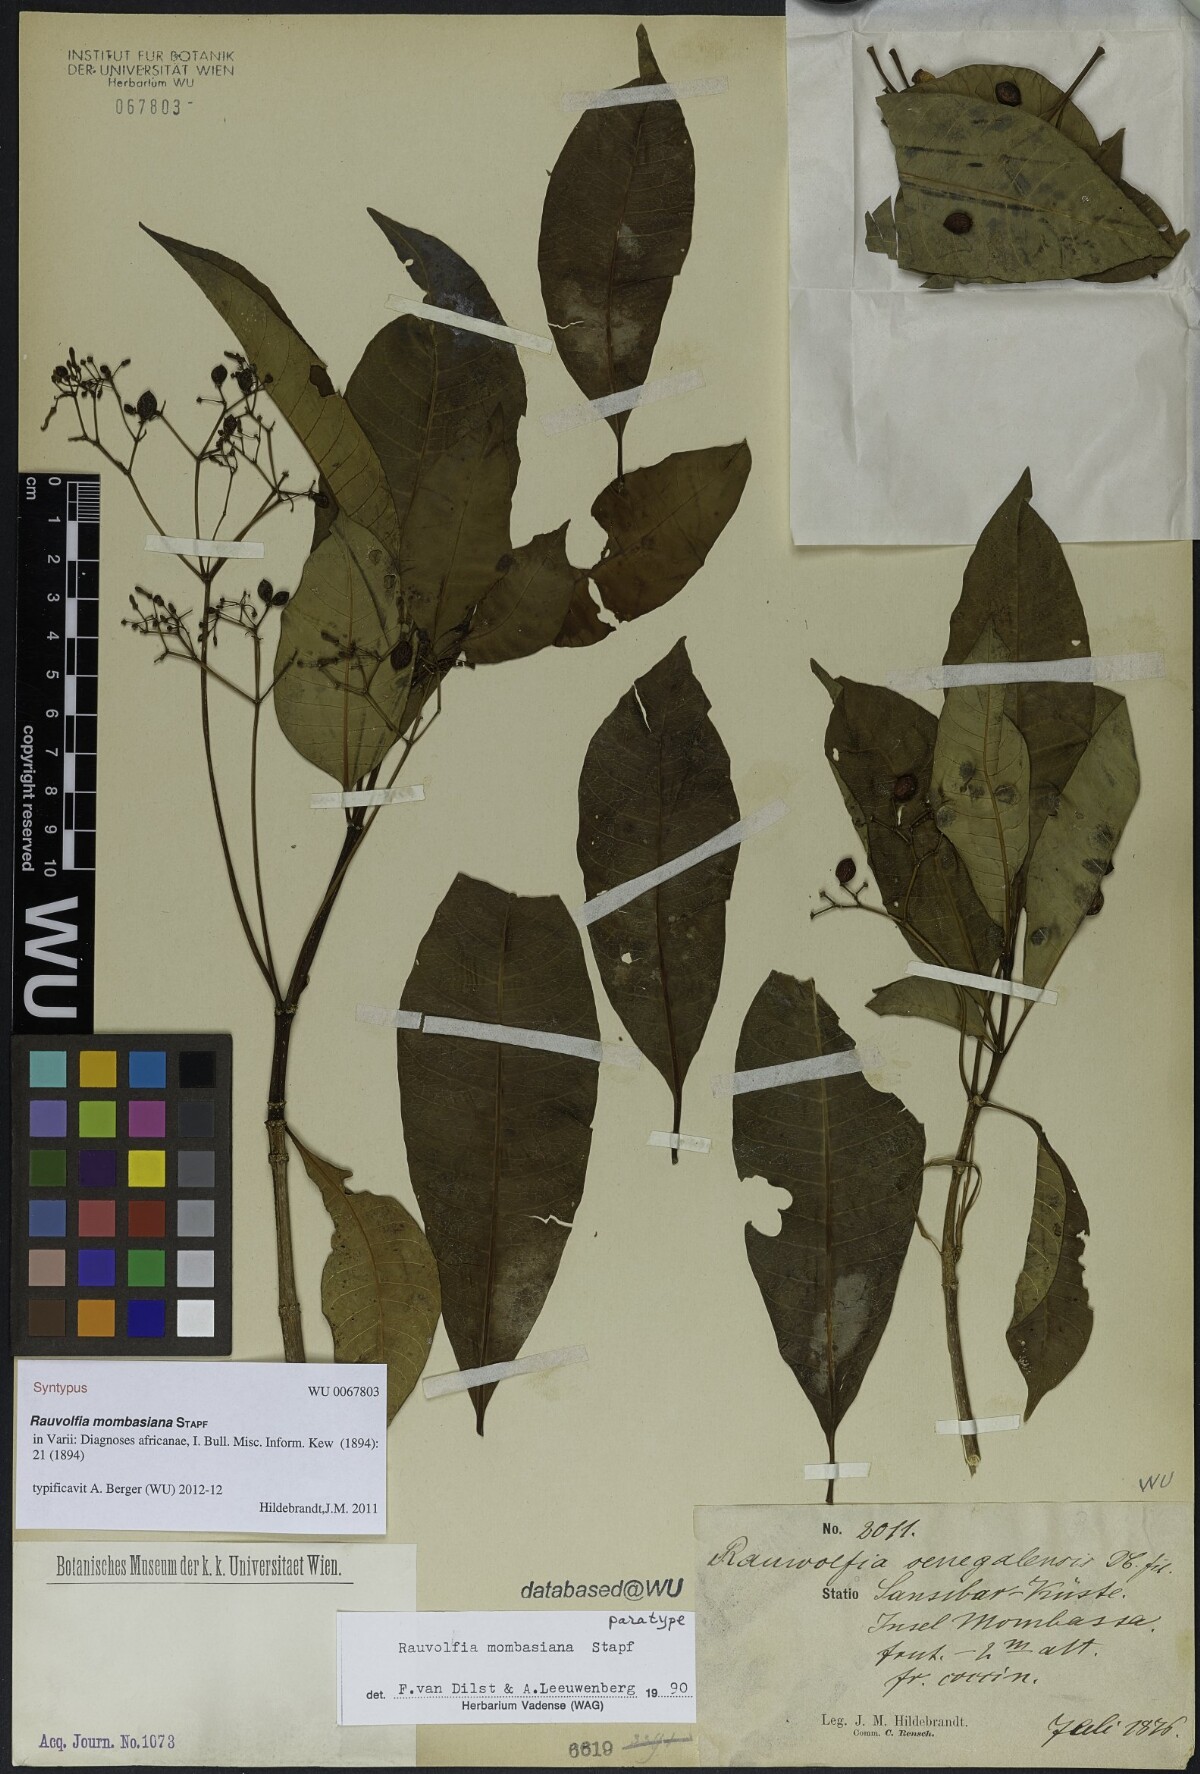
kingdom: Plantae
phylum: Tracheophyta
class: Magnoliopsida
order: Gentianales
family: Apocynaceae
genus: Rauvolfia
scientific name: Rauvolfia mombasiana
